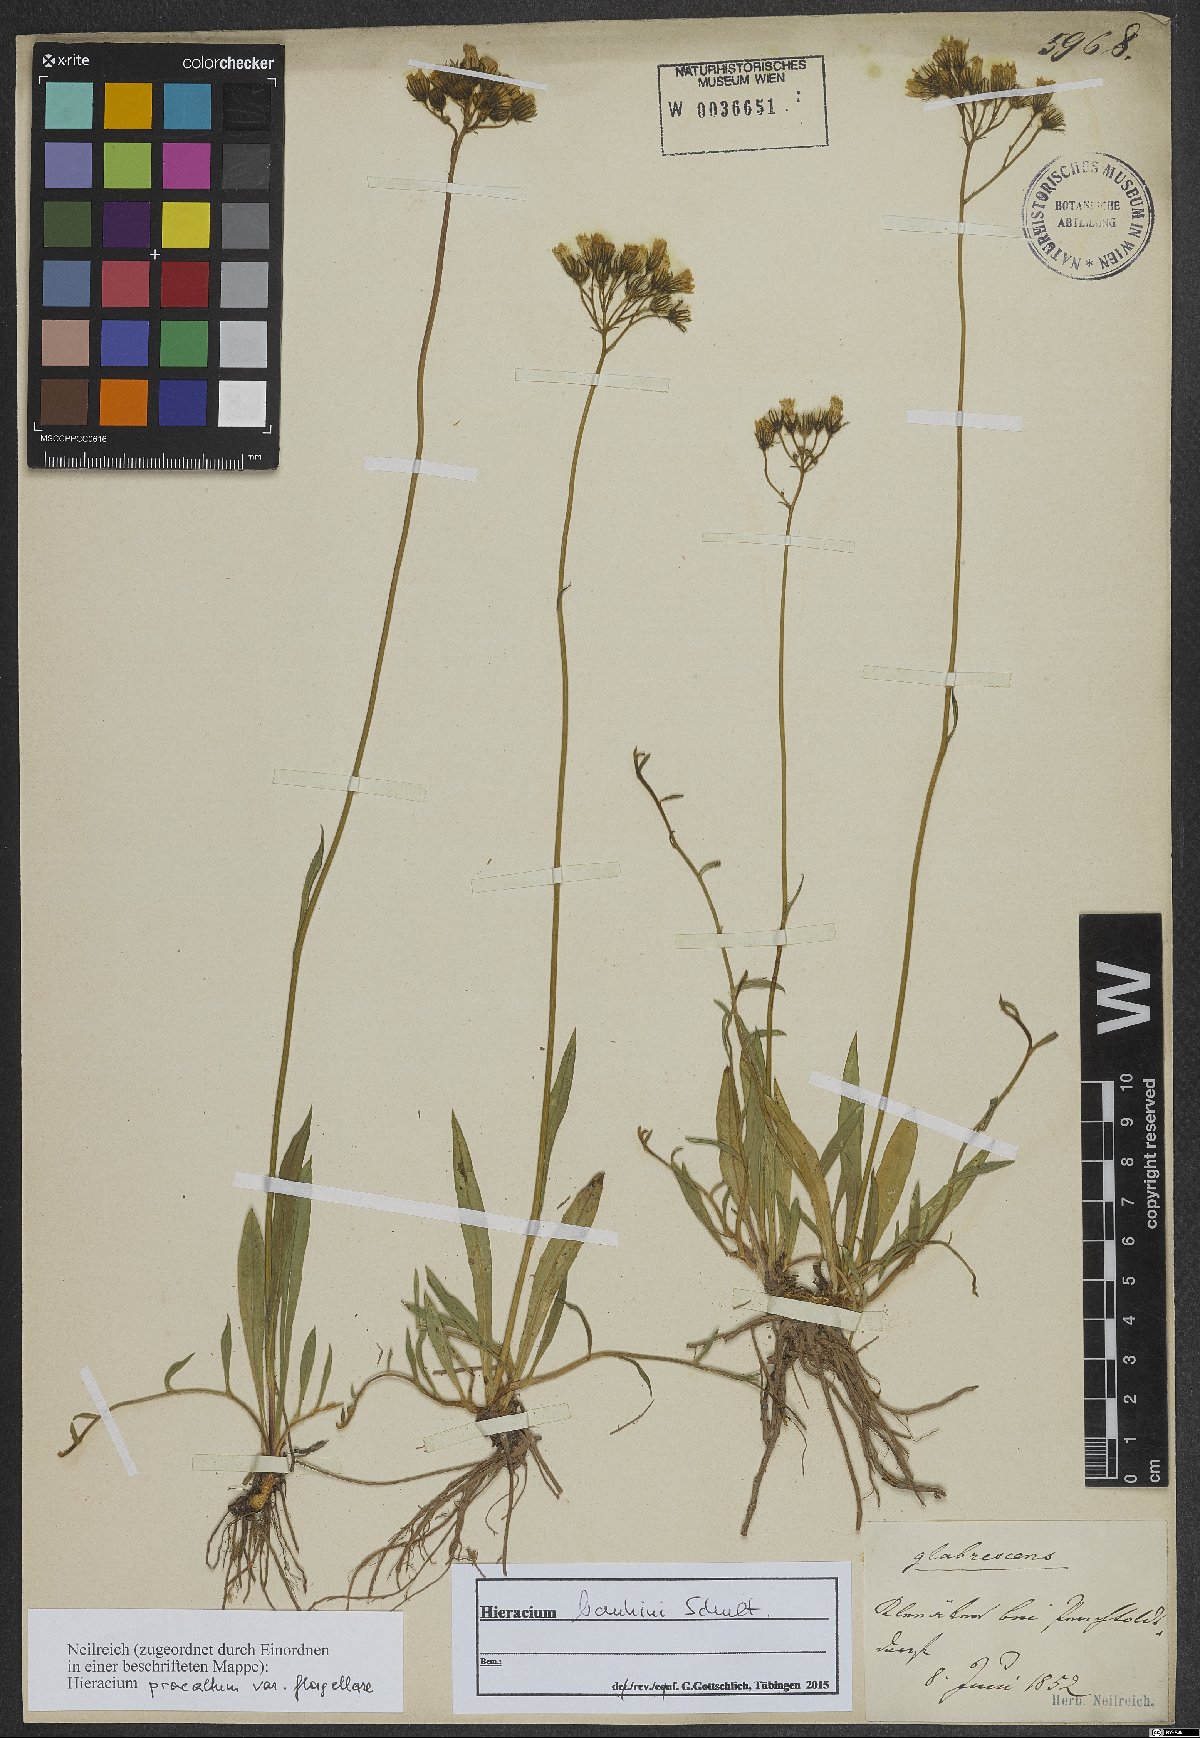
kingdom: Plantae
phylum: Tracheophyta
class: Magnoliopsida
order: Asterales
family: Asteraceae
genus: Pilosella
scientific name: Pilosella bauhini
